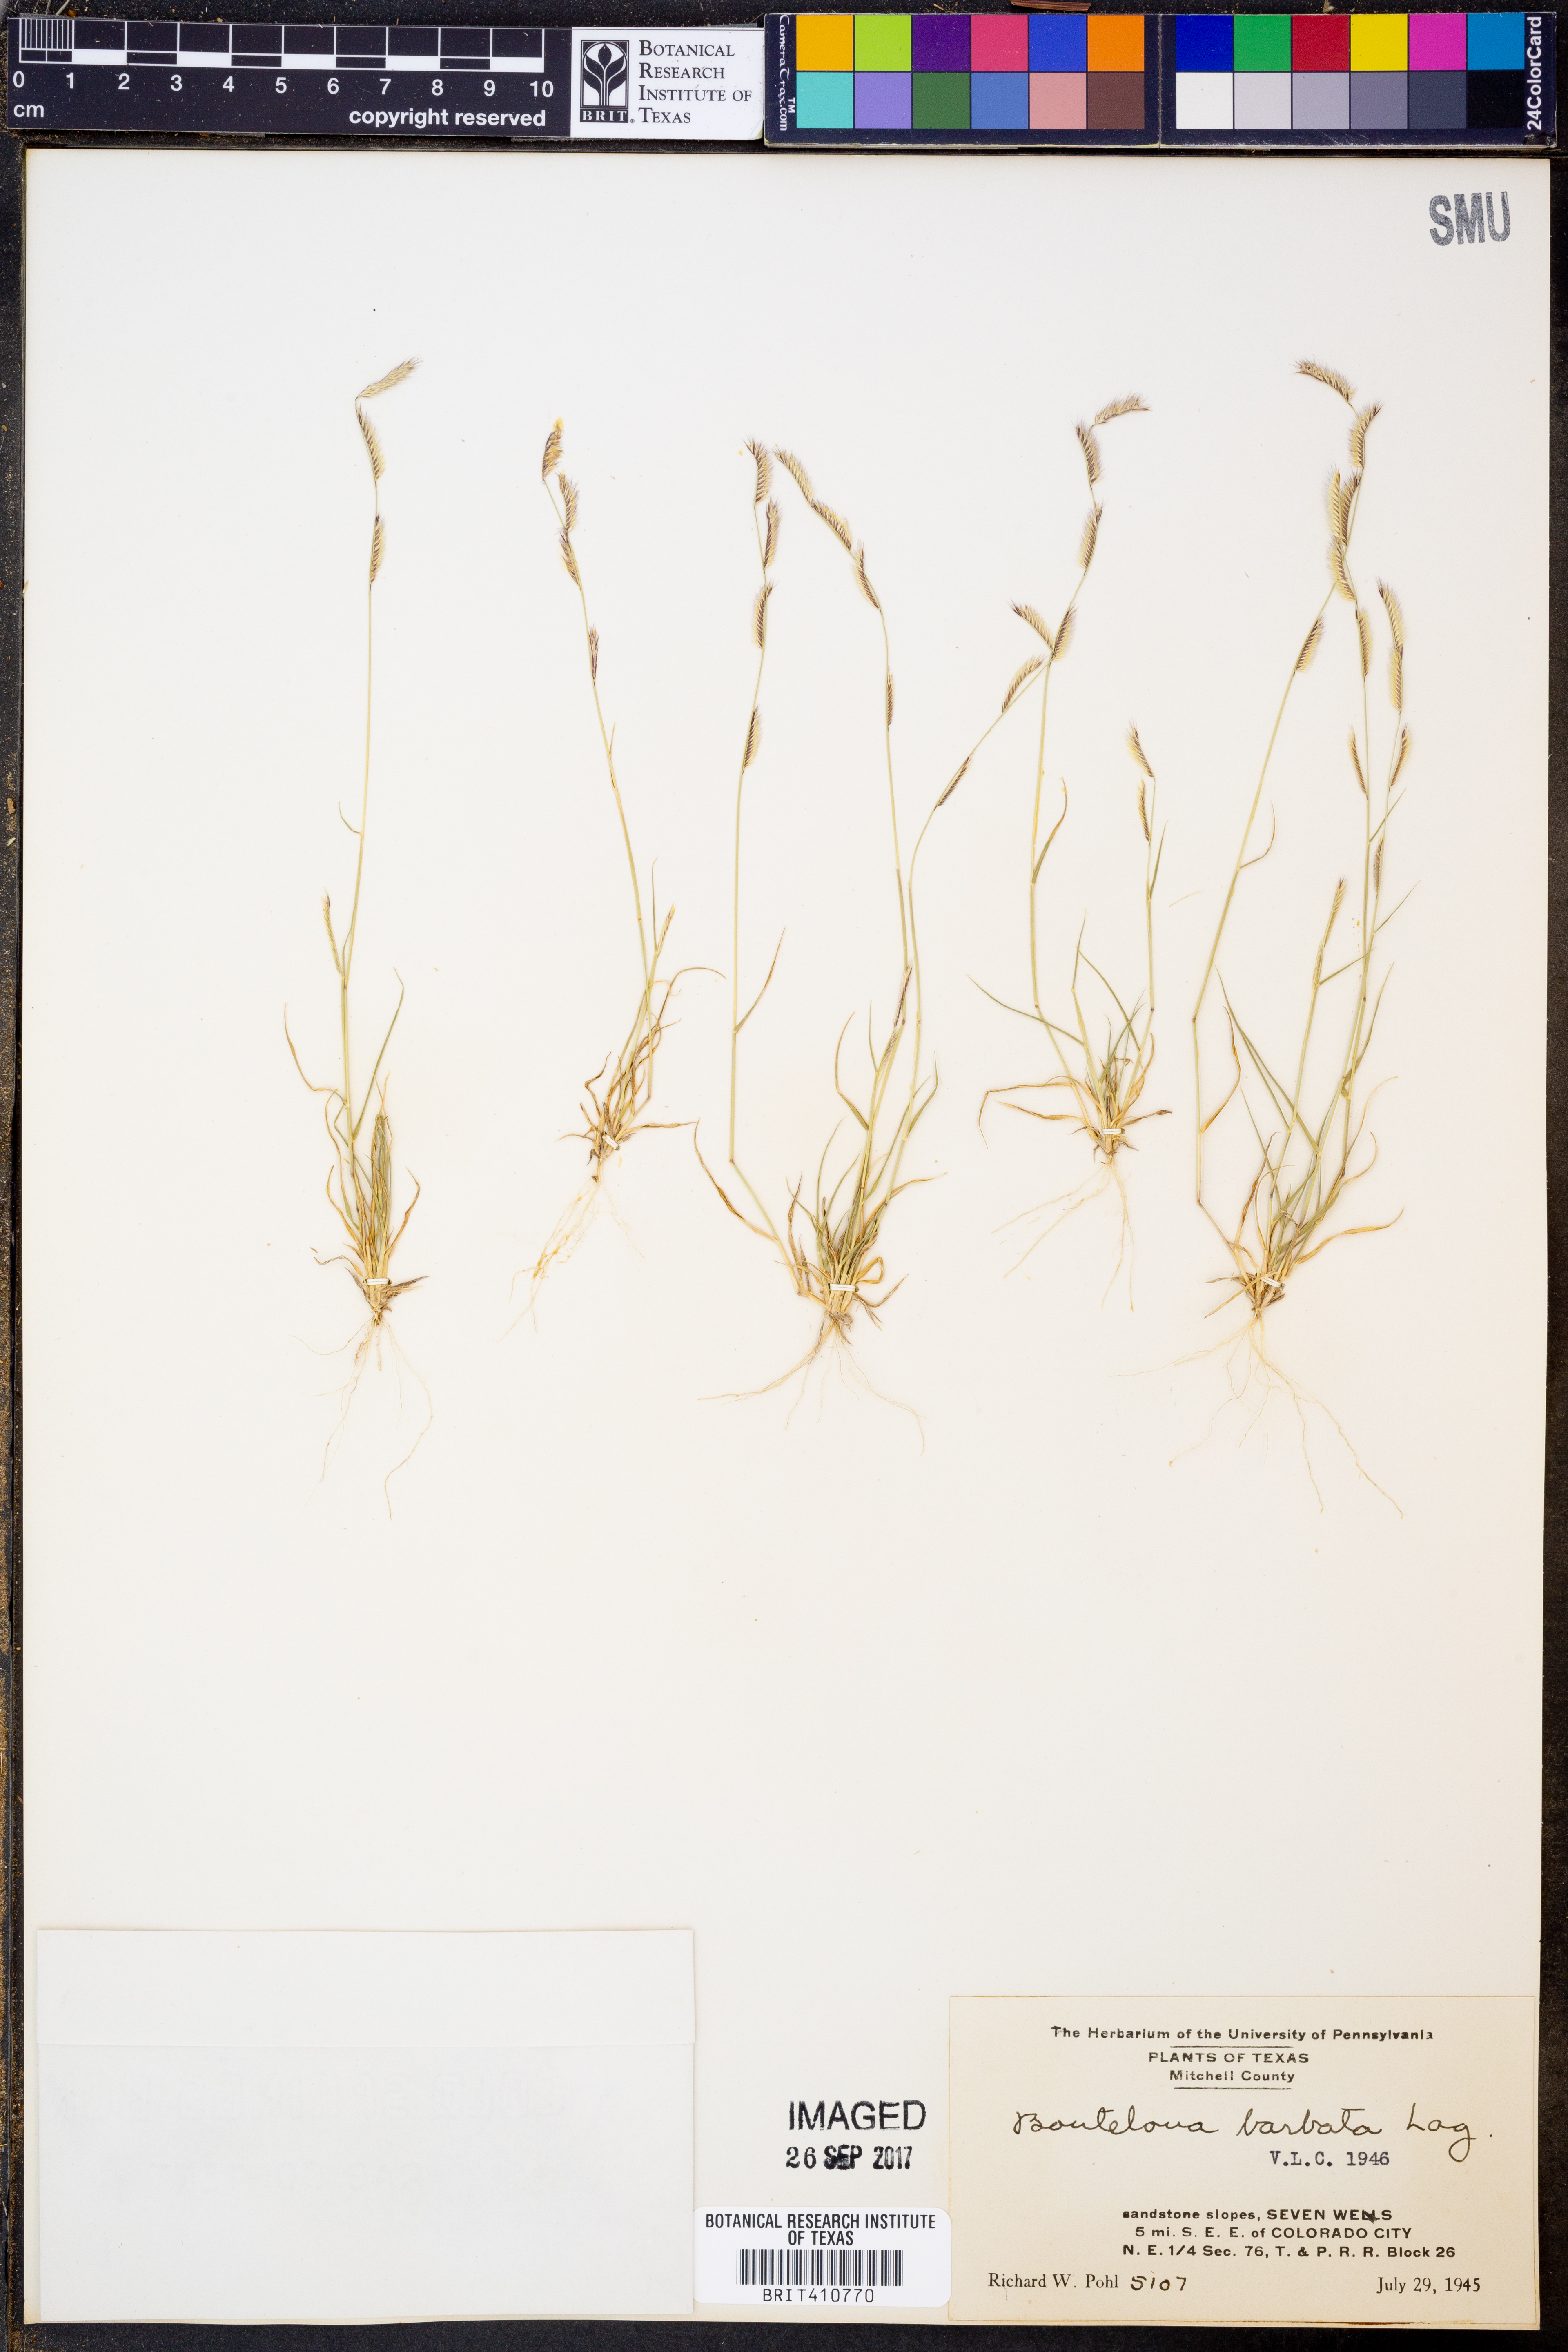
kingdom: Plantae
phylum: Tracheophyta
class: Liliopsida
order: Poales
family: Poaceae
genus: Bouteloua
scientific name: Bouteloua barbata
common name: Six-weeks grama
